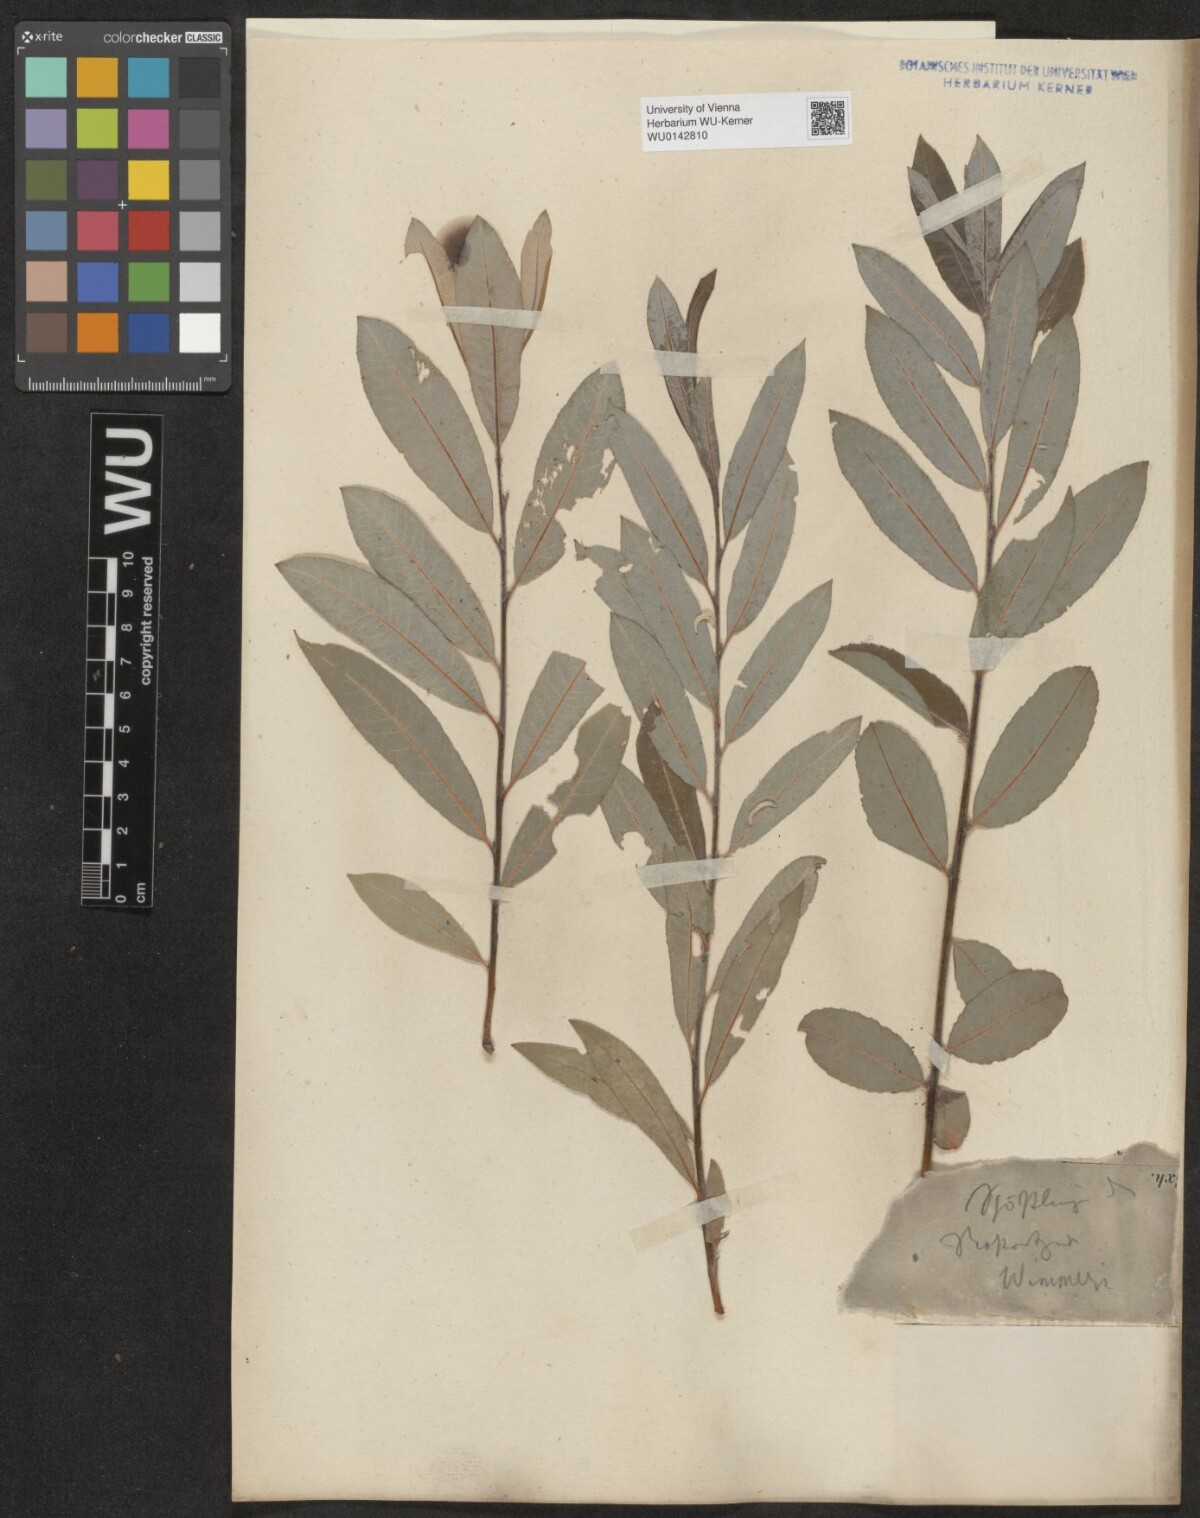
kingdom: Plantae
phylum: Tracheophyta
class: Magnoliopsida
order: Malpighiales
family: Salicaceae
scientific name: Salicaceae
